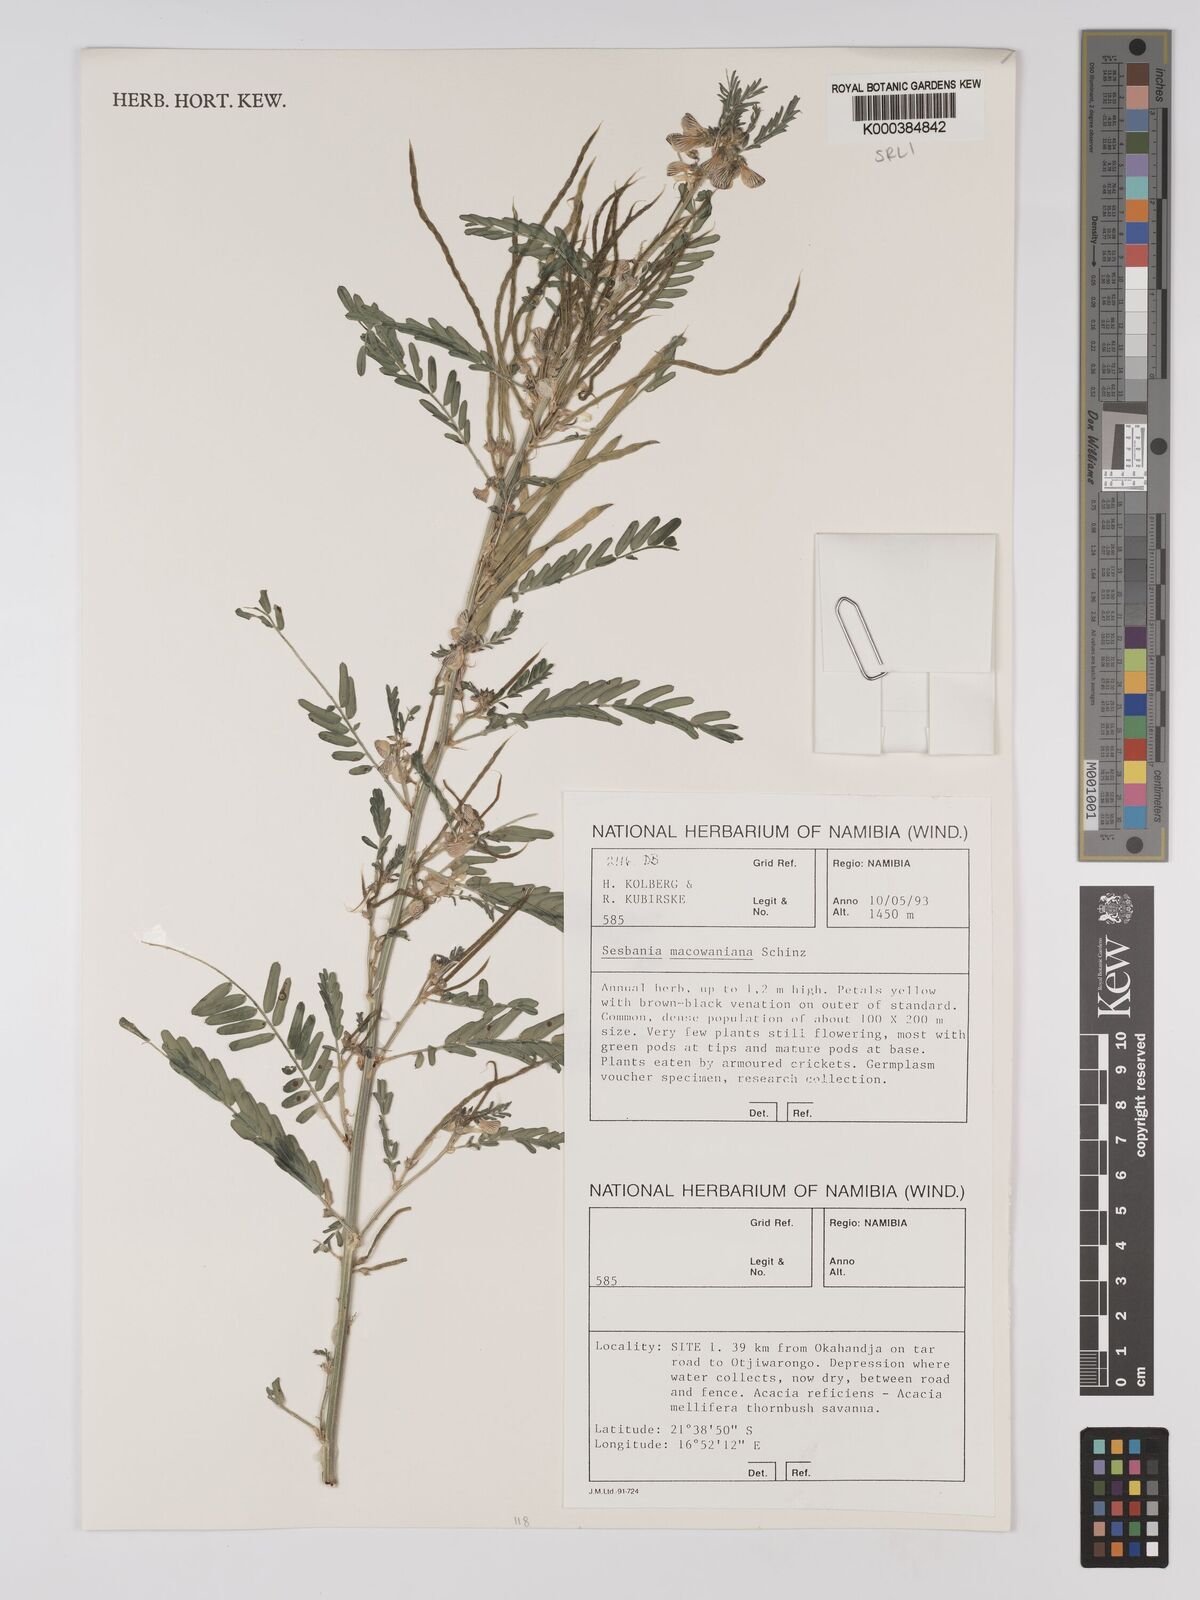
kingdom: Plantae
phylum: Tracheophyta
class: Magnoliopsida
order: Fabales
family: Fabaceae
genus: Sesbania
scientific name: Sesbania macowaniana
